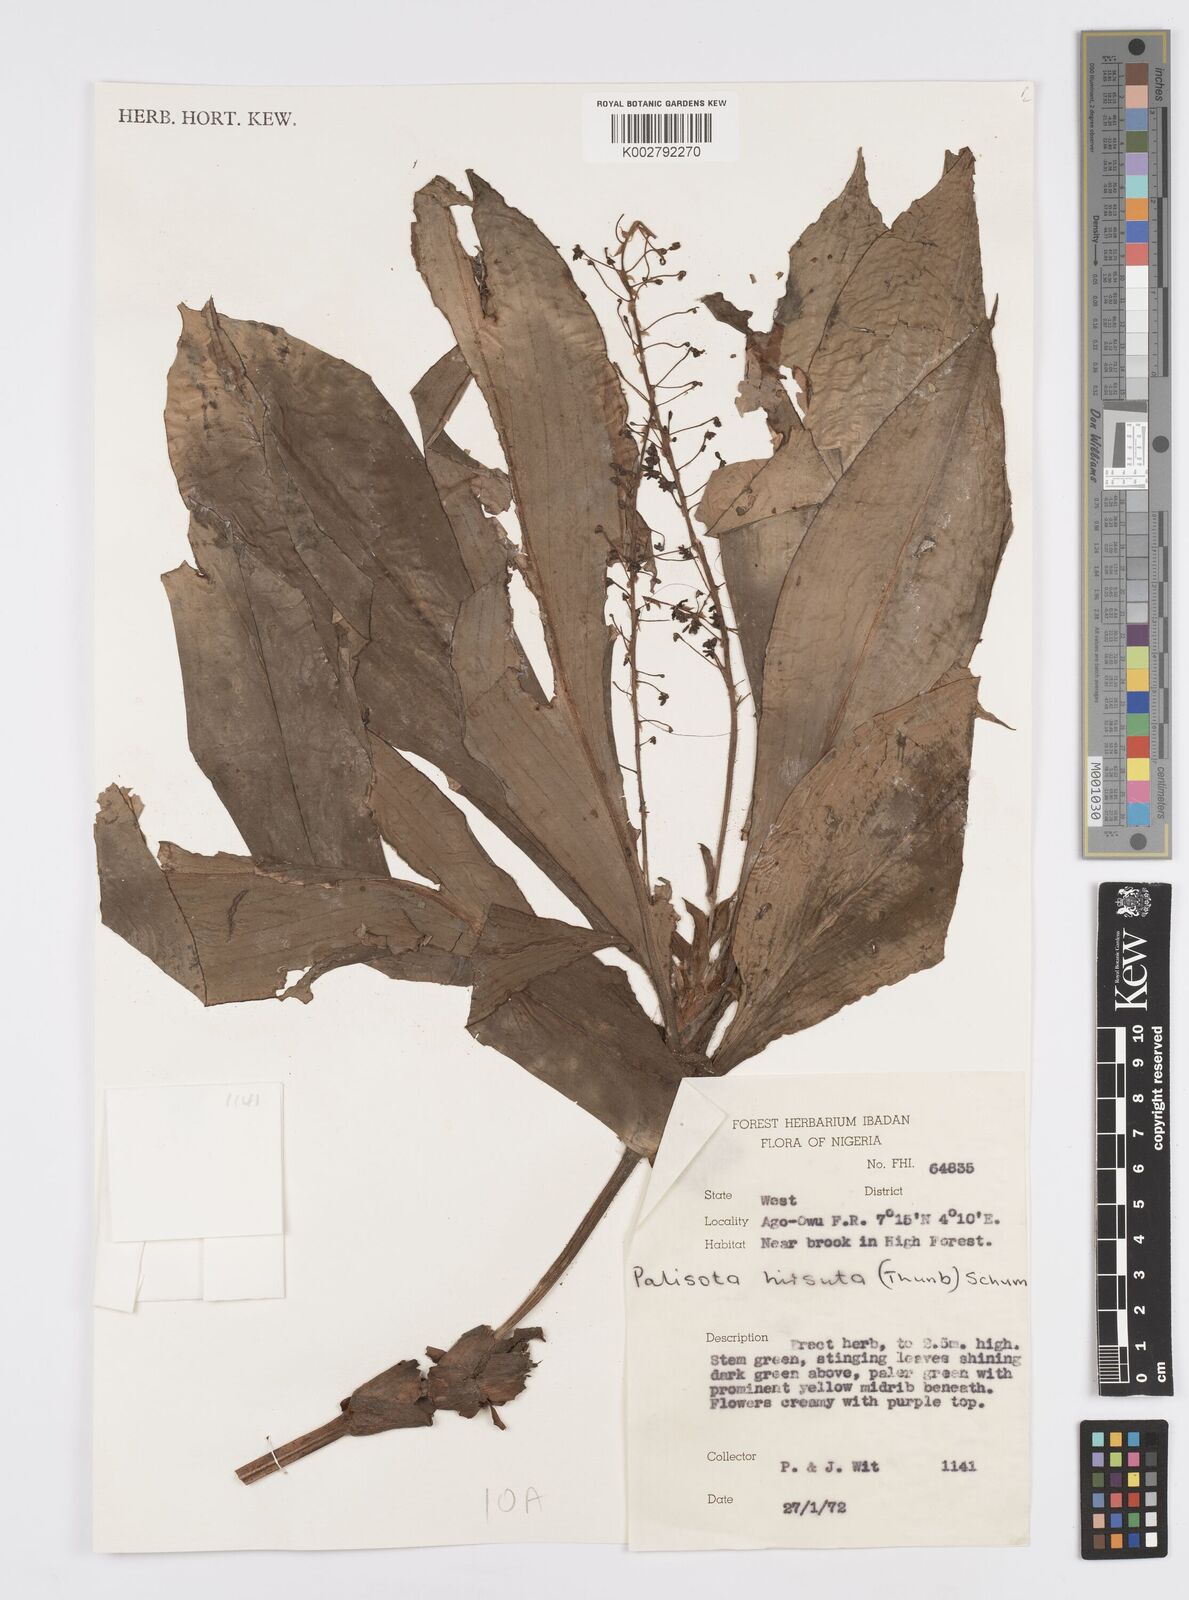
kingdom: Plantae
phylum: Tracheophyta
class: Liliopsida
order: Commelinales
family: Commelinaceae
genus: Palisota
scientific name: Palisota hirsuta
